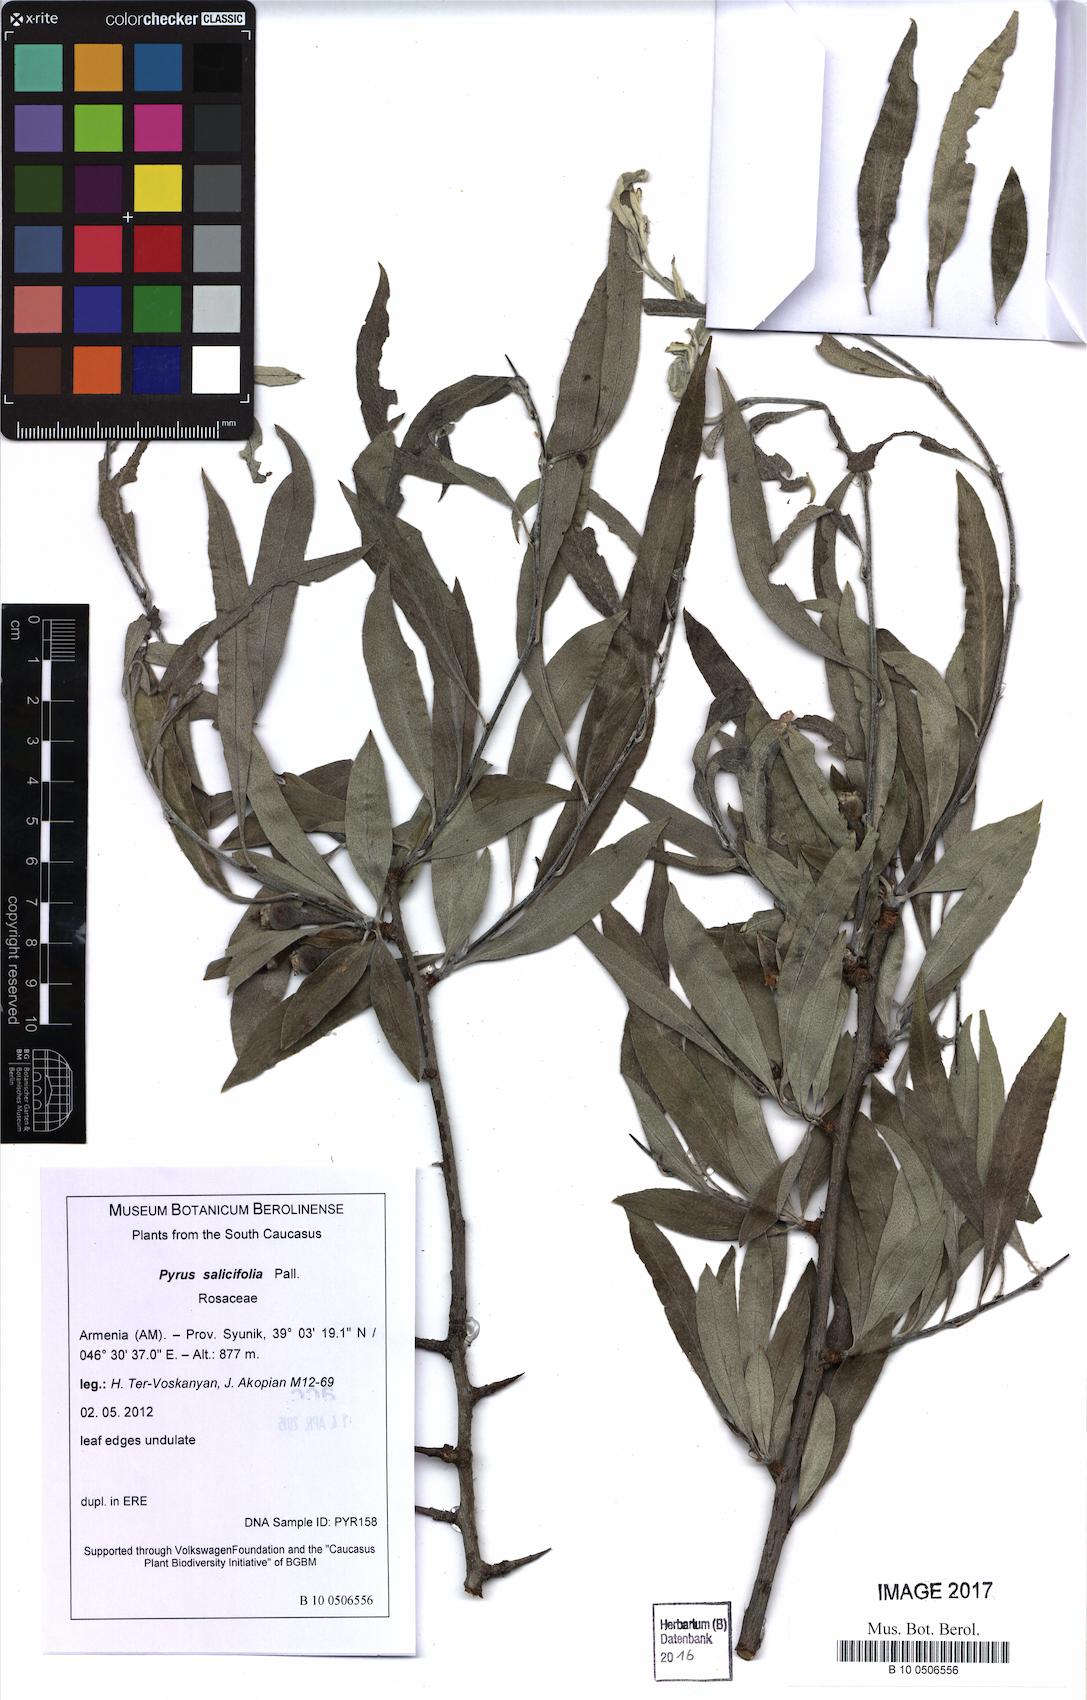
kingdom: Plantae
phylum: Tracheophyta
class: Magnoliopsida
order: Rosales
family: Rosaceae
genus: Pyrus
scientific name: Pyrus salicifolia
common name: Willow-leaved pear
